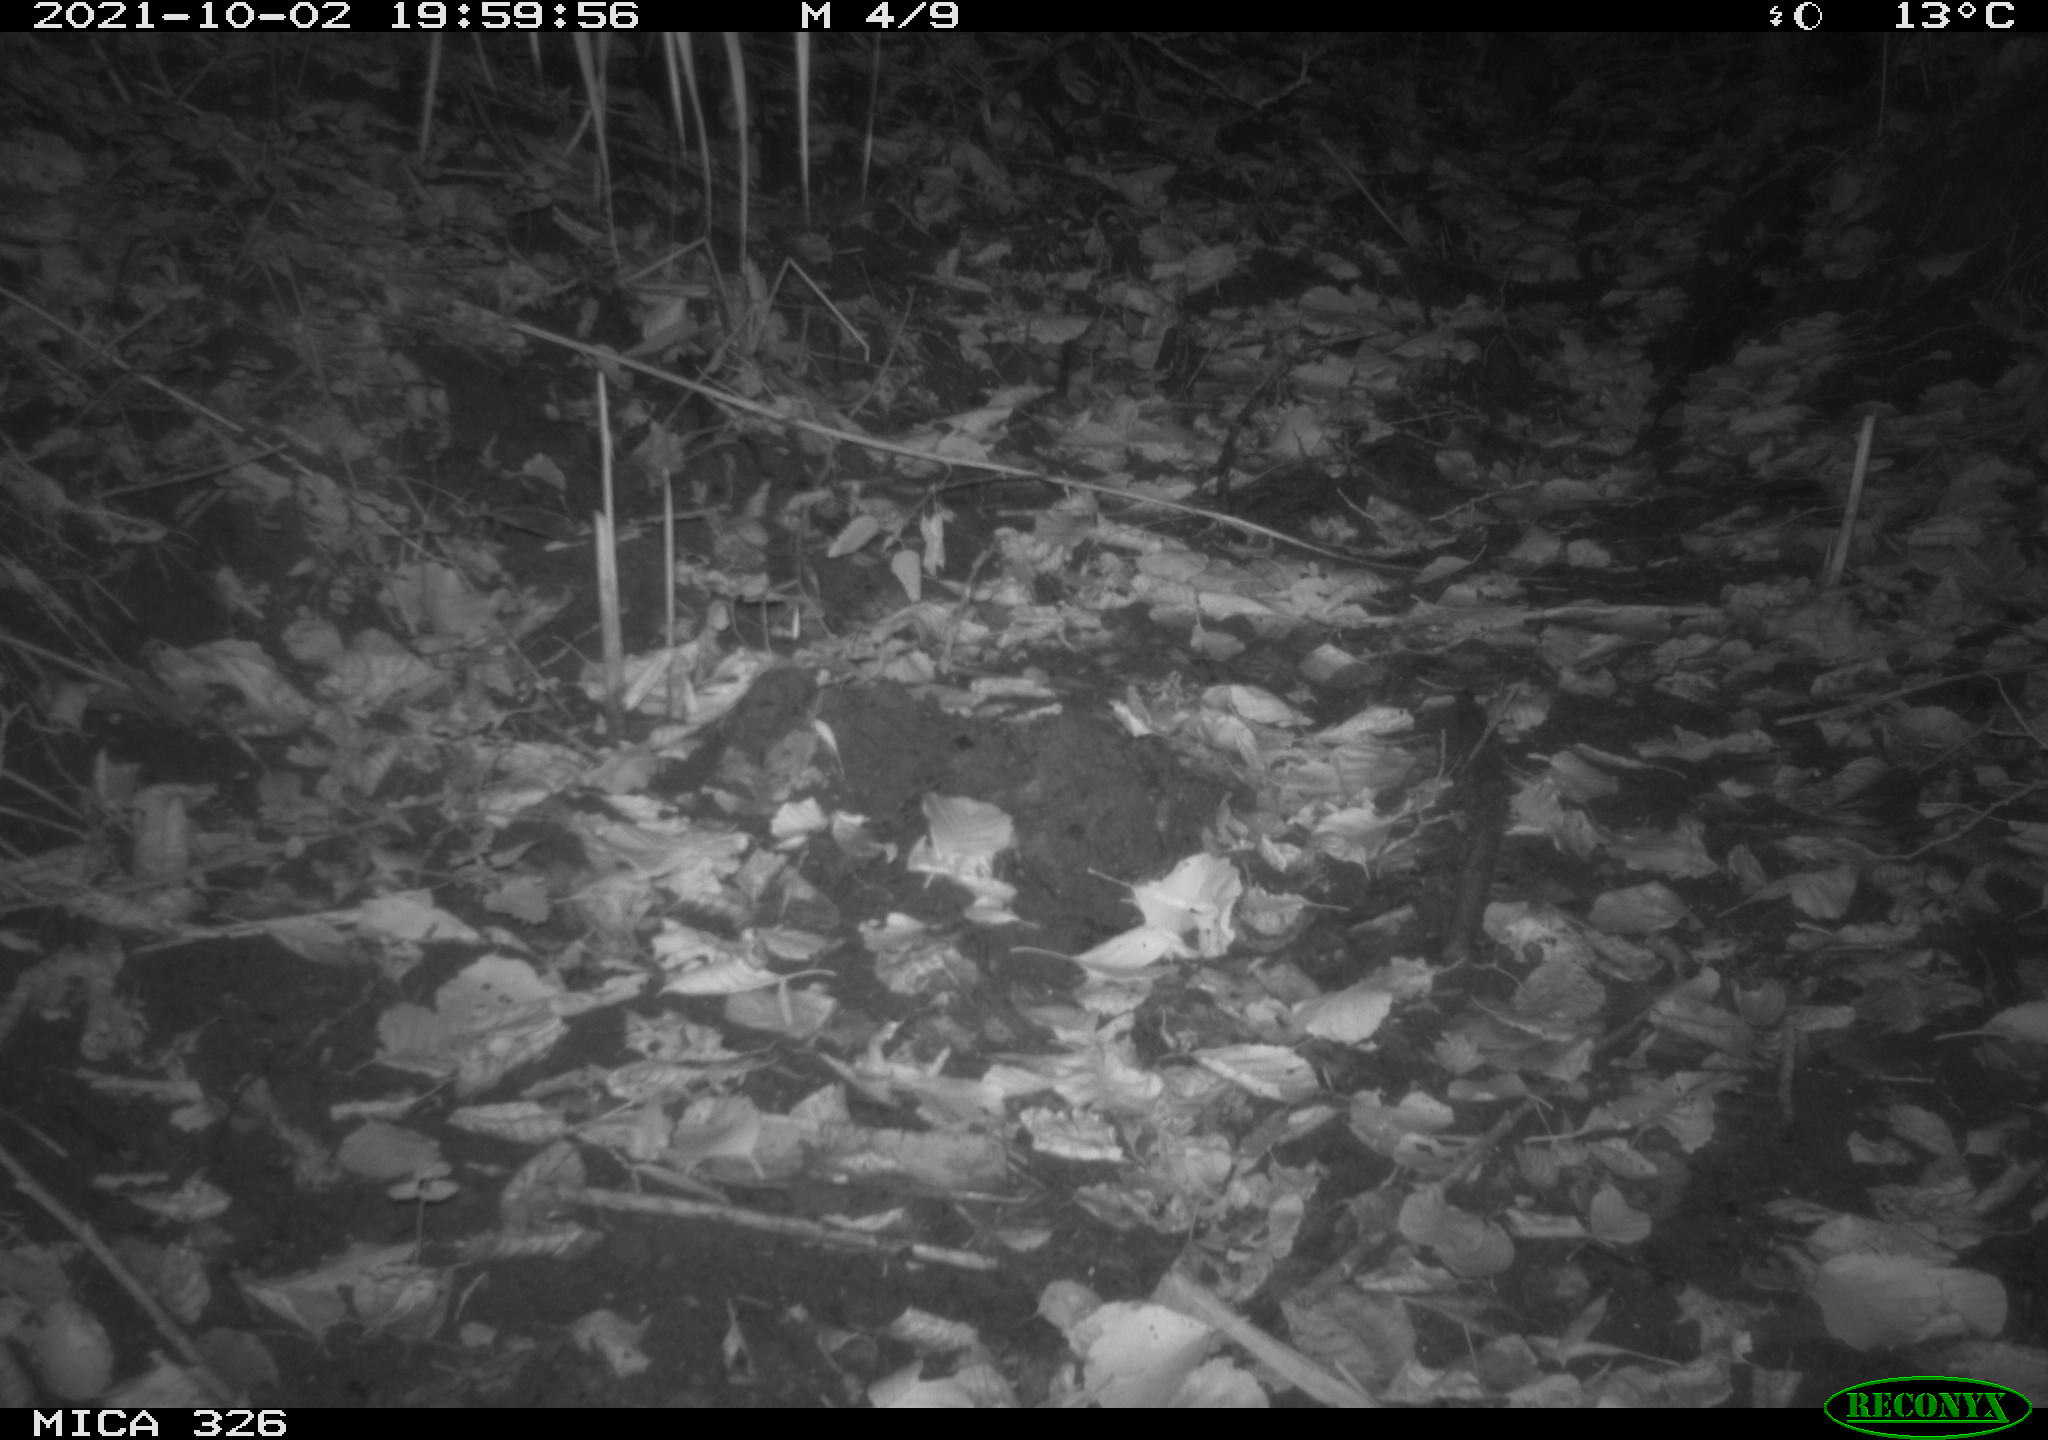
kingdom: Animalia
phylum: Chordata
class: Mammalia
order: Rodentia
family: Muridae
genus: Rattus
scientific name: Rattus norvegicus
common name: Brown rat
